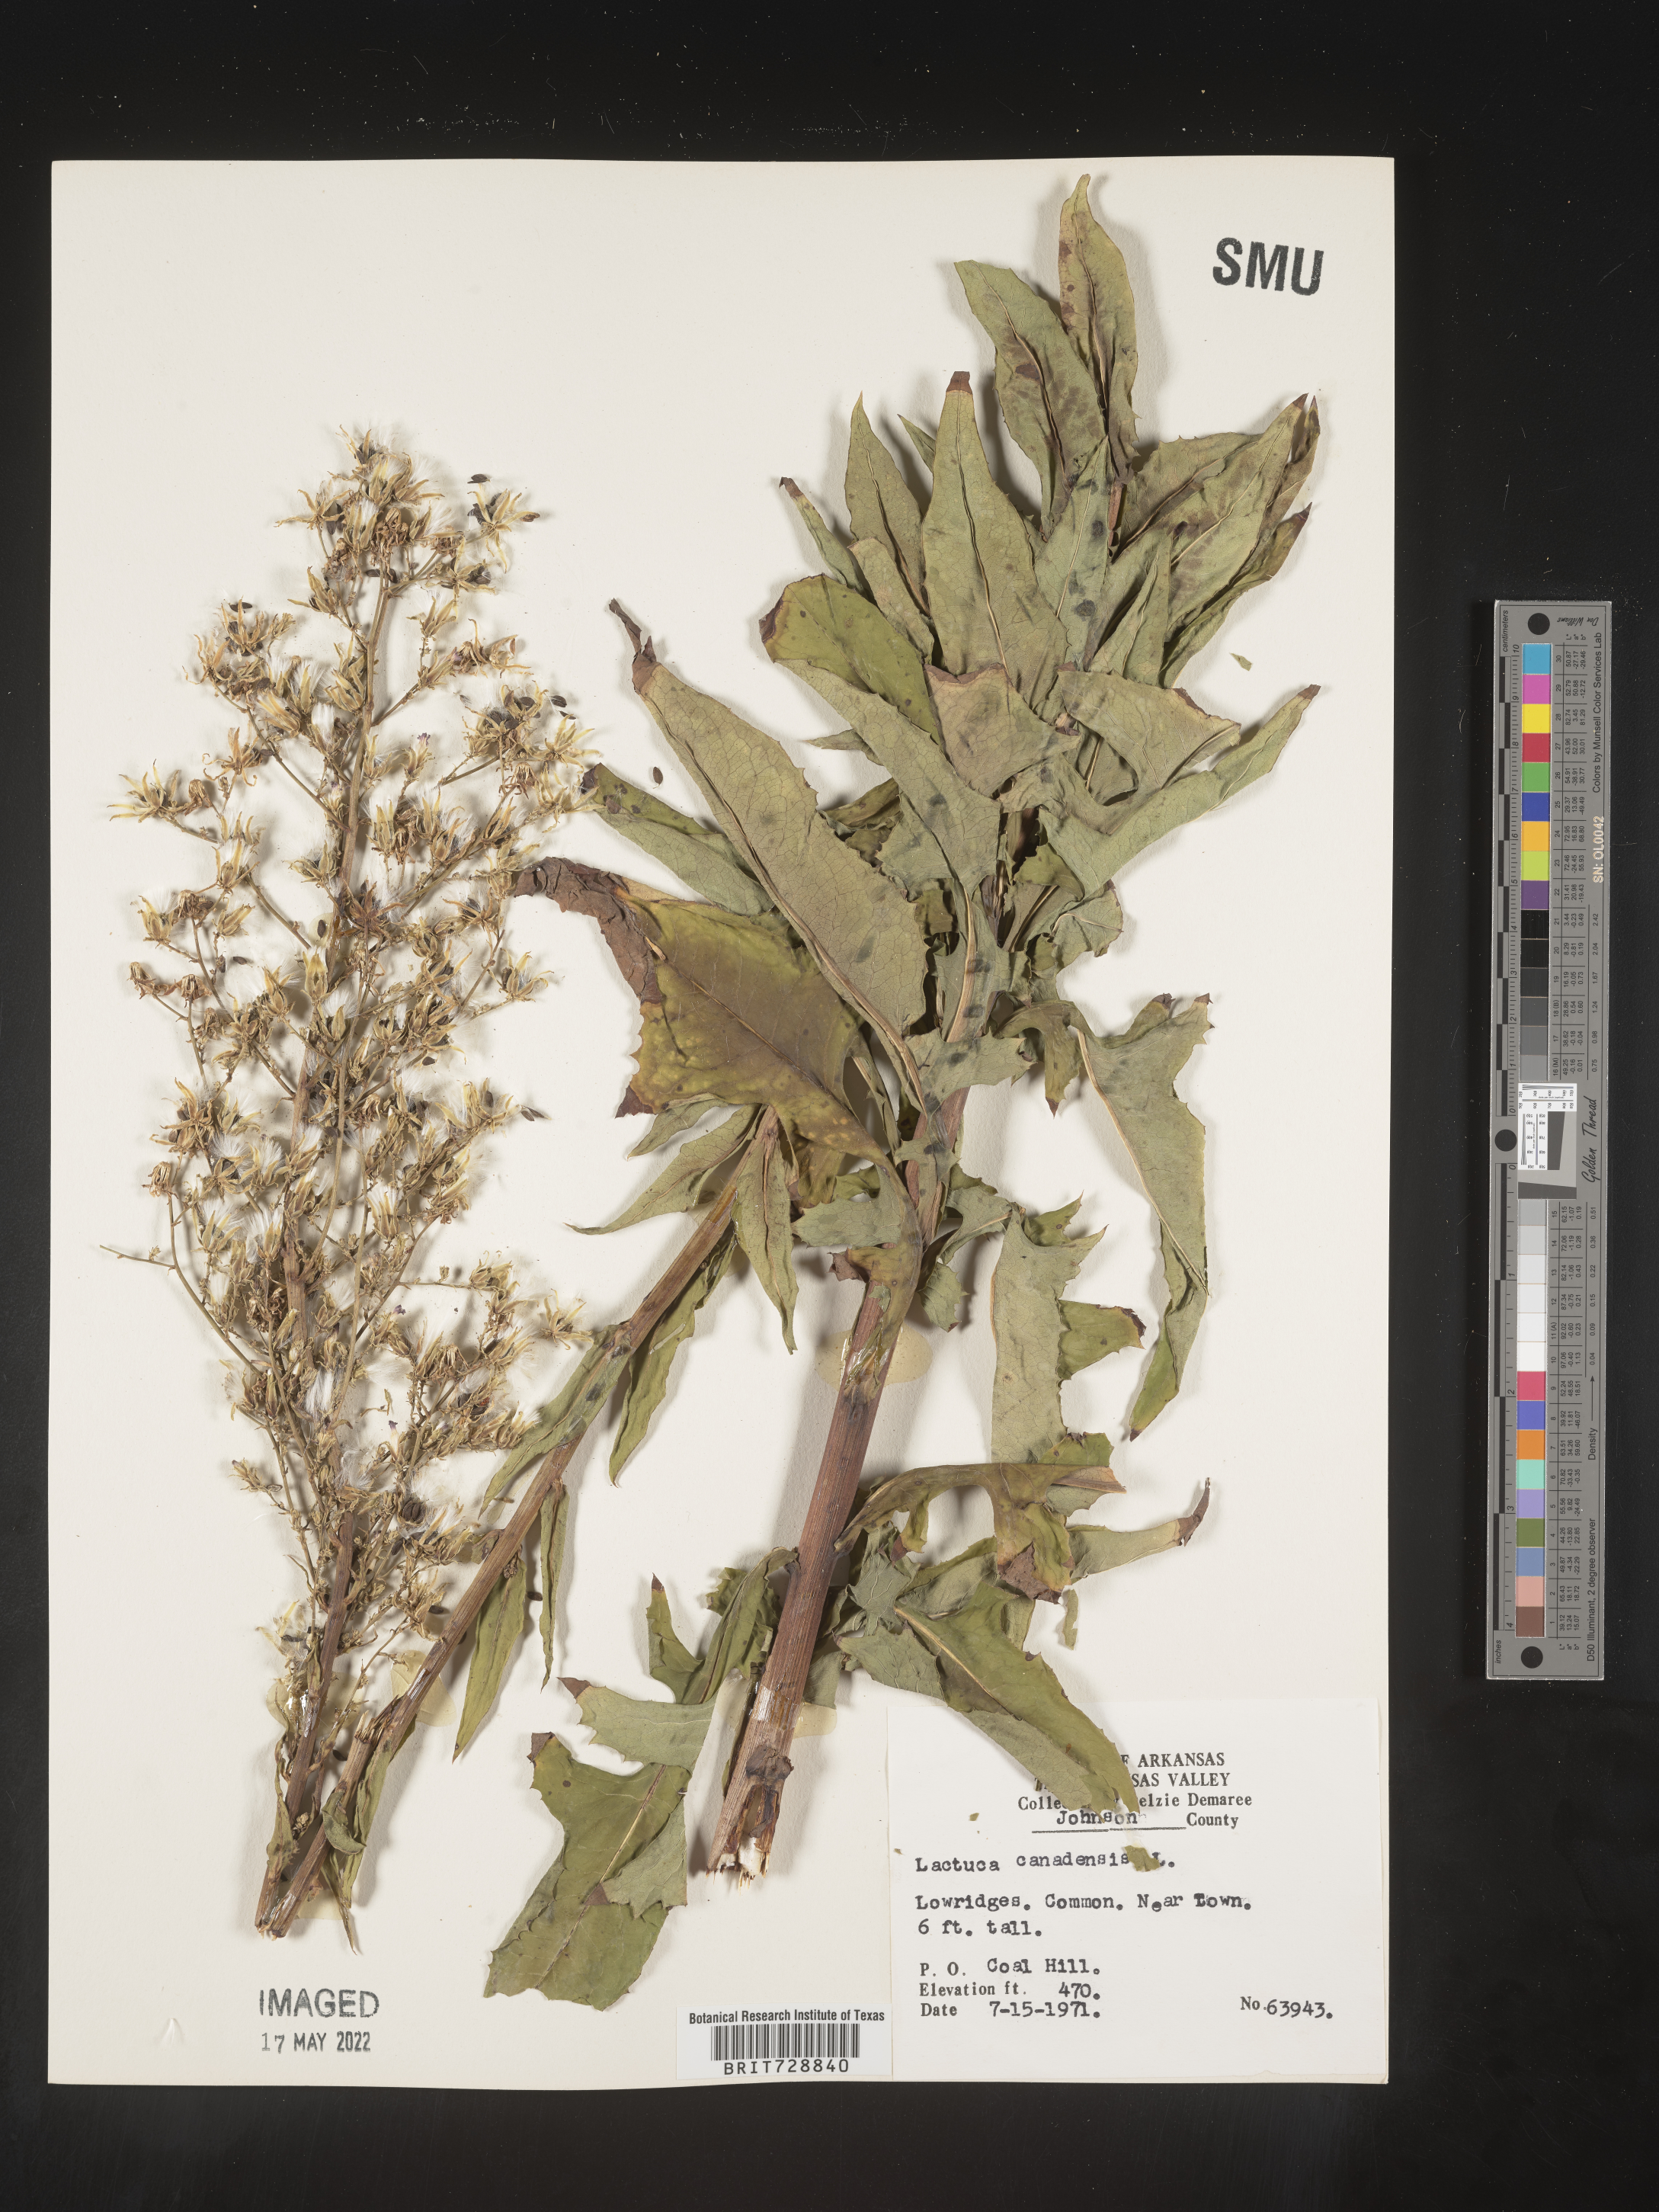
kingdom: Plantae
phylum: Tracheophyta
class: Magnoliopsida
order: Asterales
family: Asteraceae
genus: Lactuca
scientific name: Lactuca canadensis
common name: Canada lettuce
